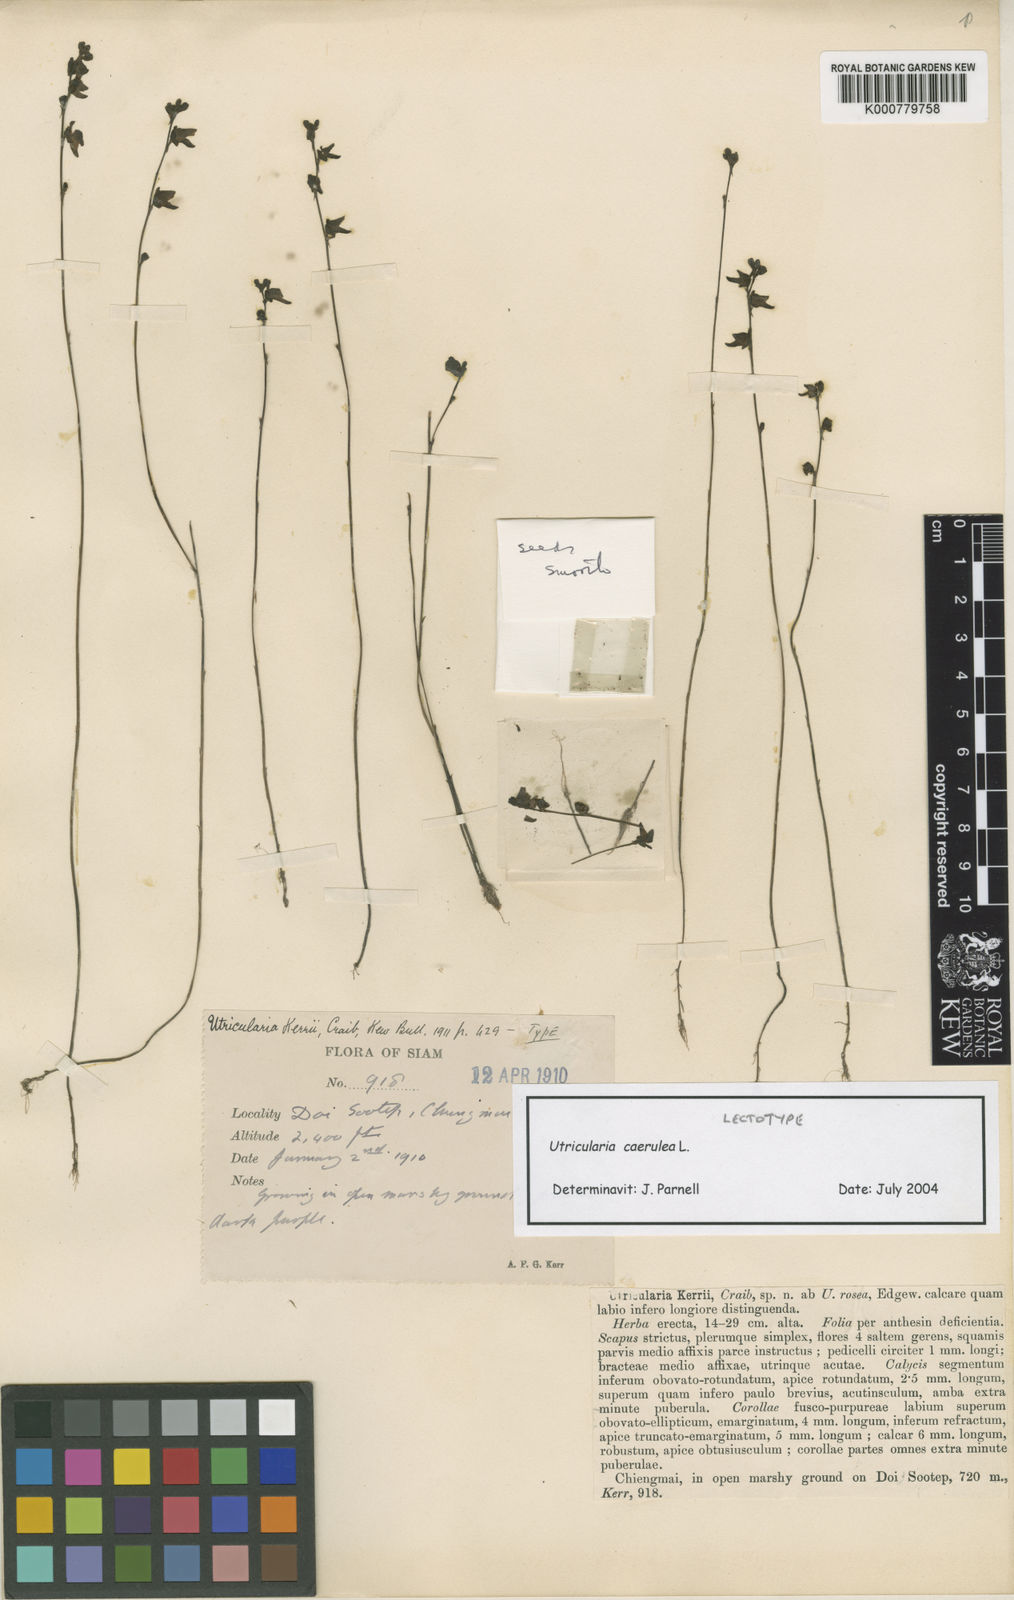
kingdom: Plantae
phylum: Tracheophyta
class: Magnoliopsida
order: Lamiales
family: Lentibulariaceae
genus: Utricularia
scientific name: Utricularia caerulea
